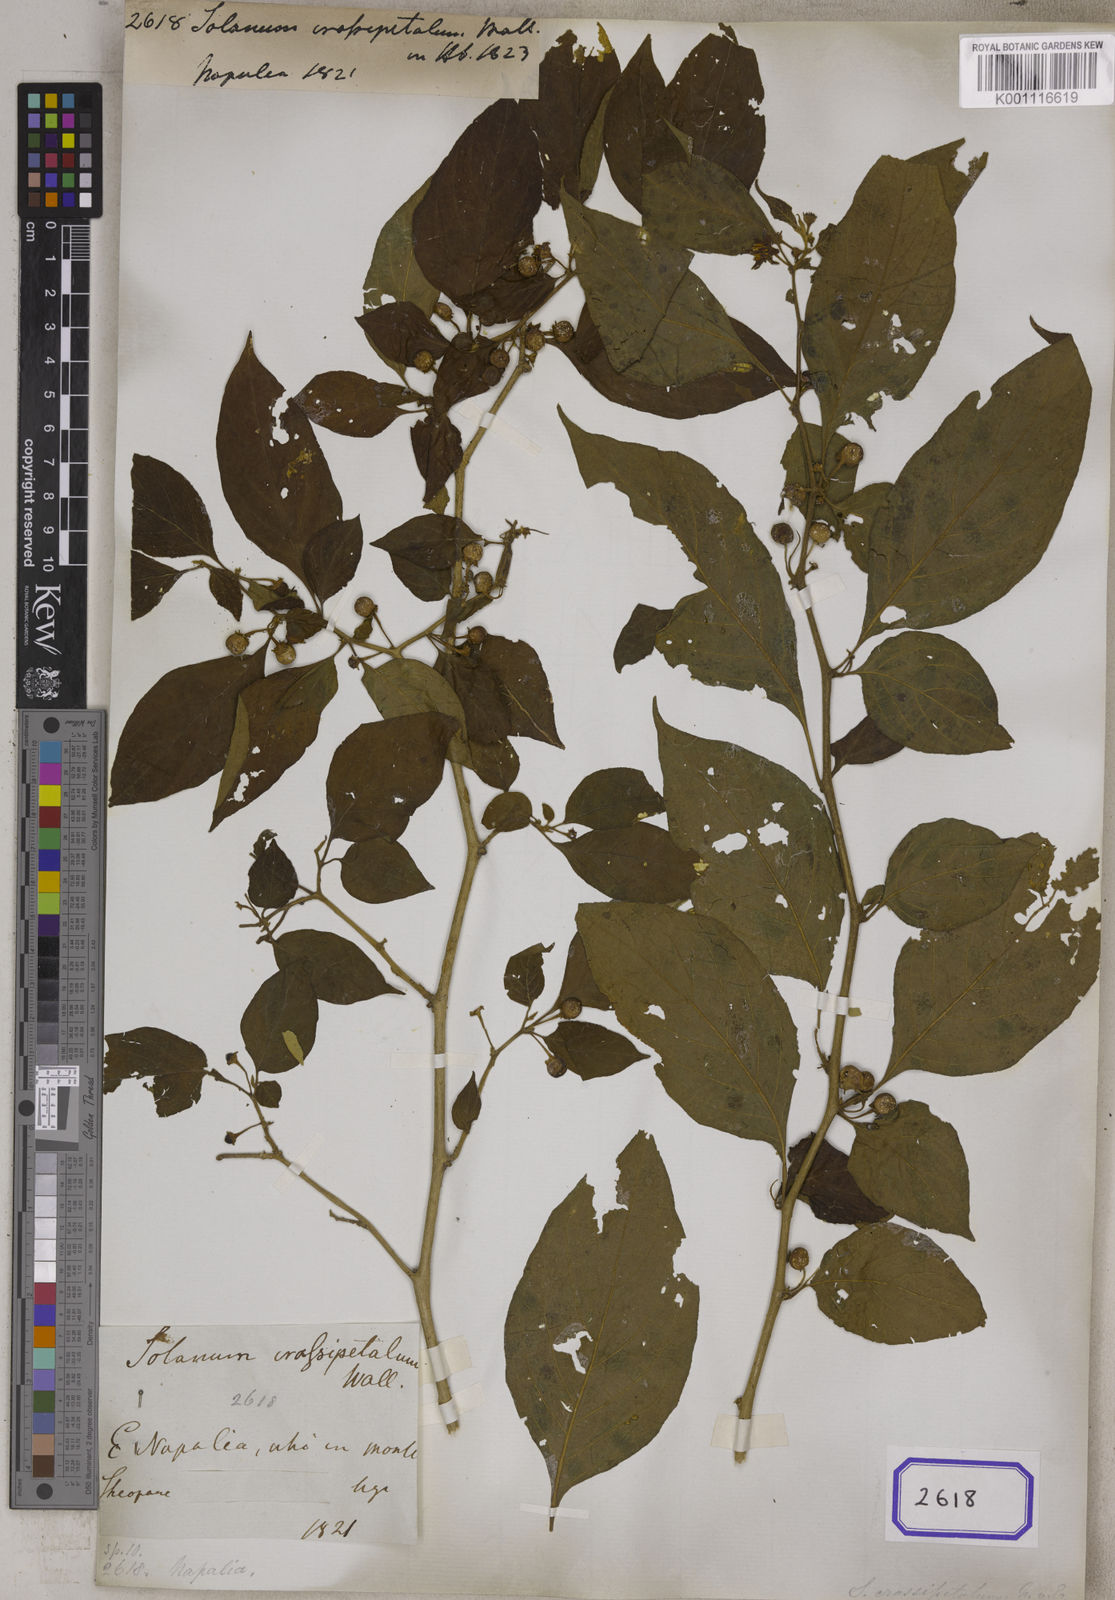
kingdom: Plantae
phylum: Tracheophyta
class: Magnoliopsida
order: Solanales
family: Solanaceae
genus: Lycianthes
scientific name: Lycianthes crassipetalum
